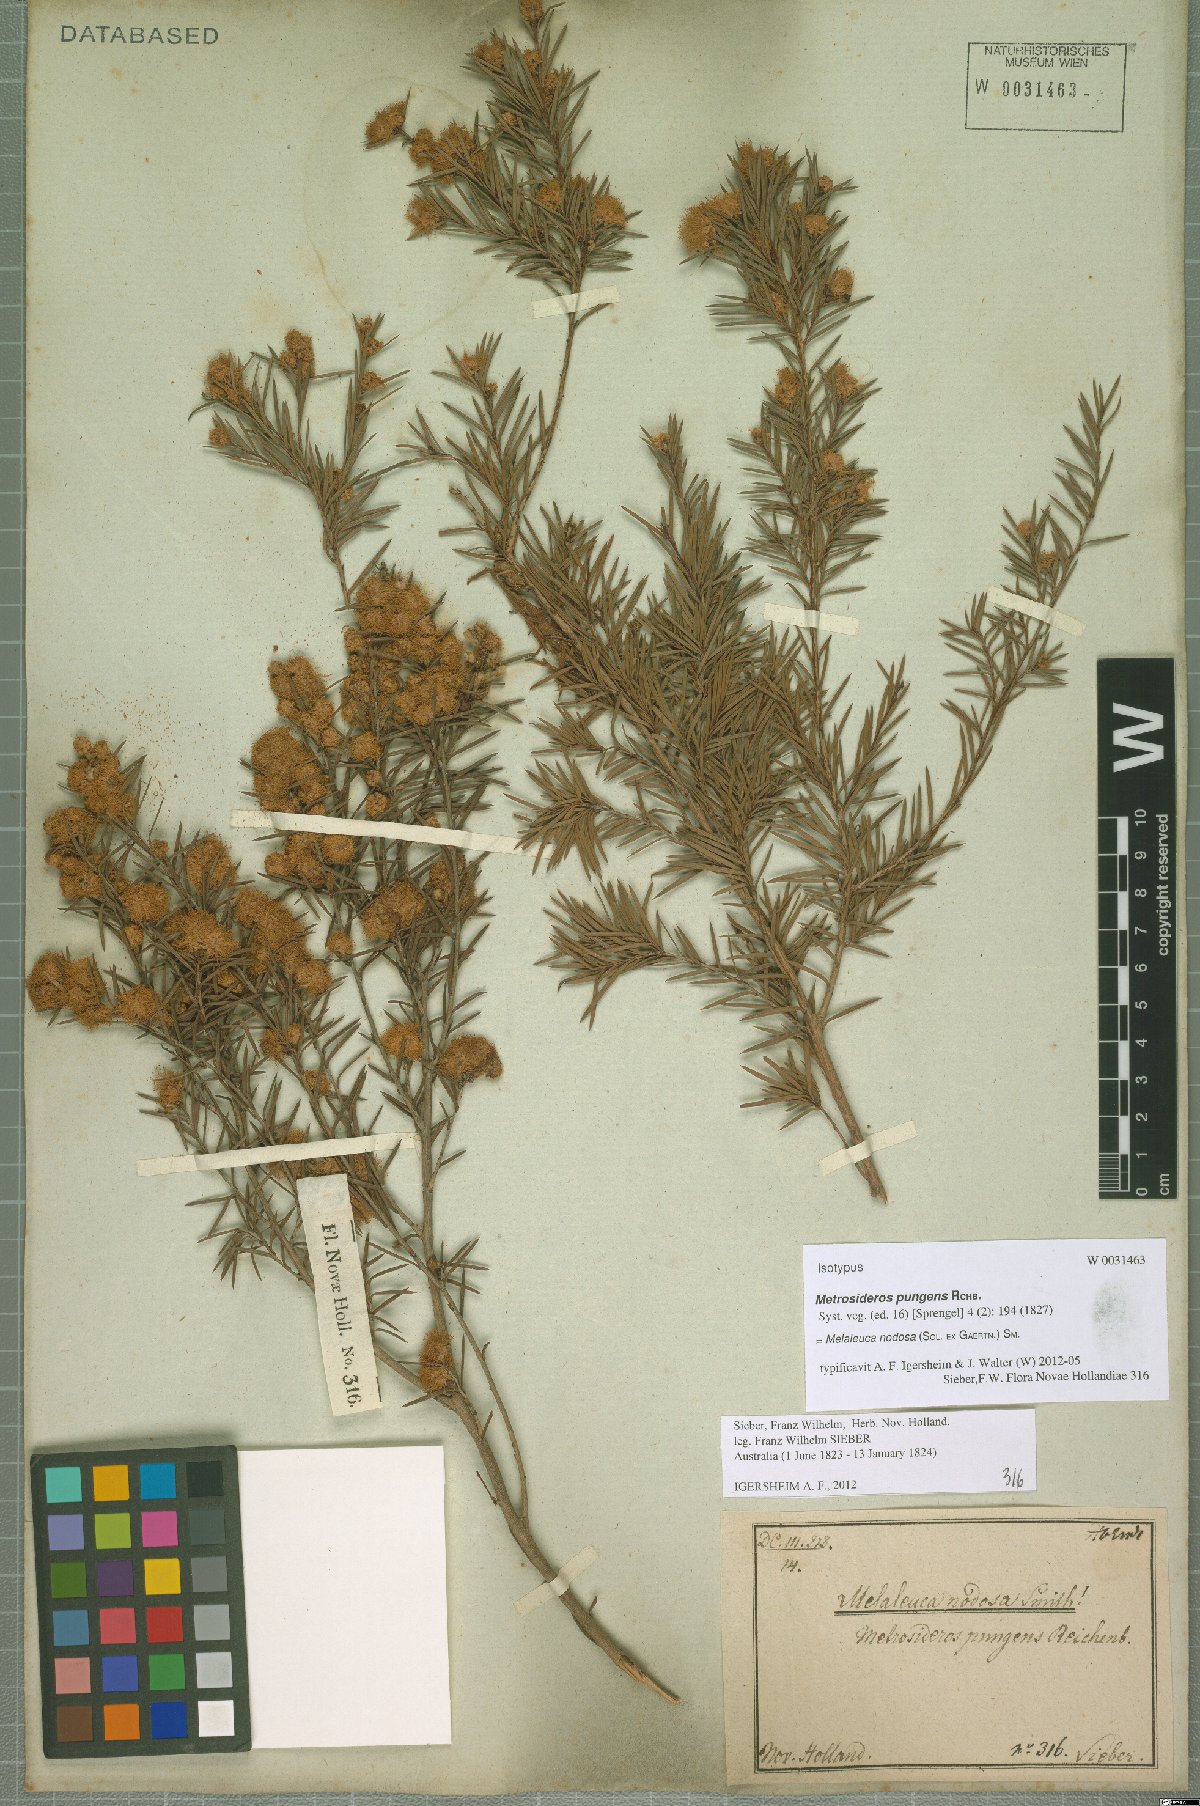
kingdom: Plantae
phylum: Tracheophyta
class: Magnoliopsida
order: Myrtales
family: Myrtaceae
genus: Melaleuca
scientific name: Melaleuca nodosa
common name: Prickly-leaf paperbark
